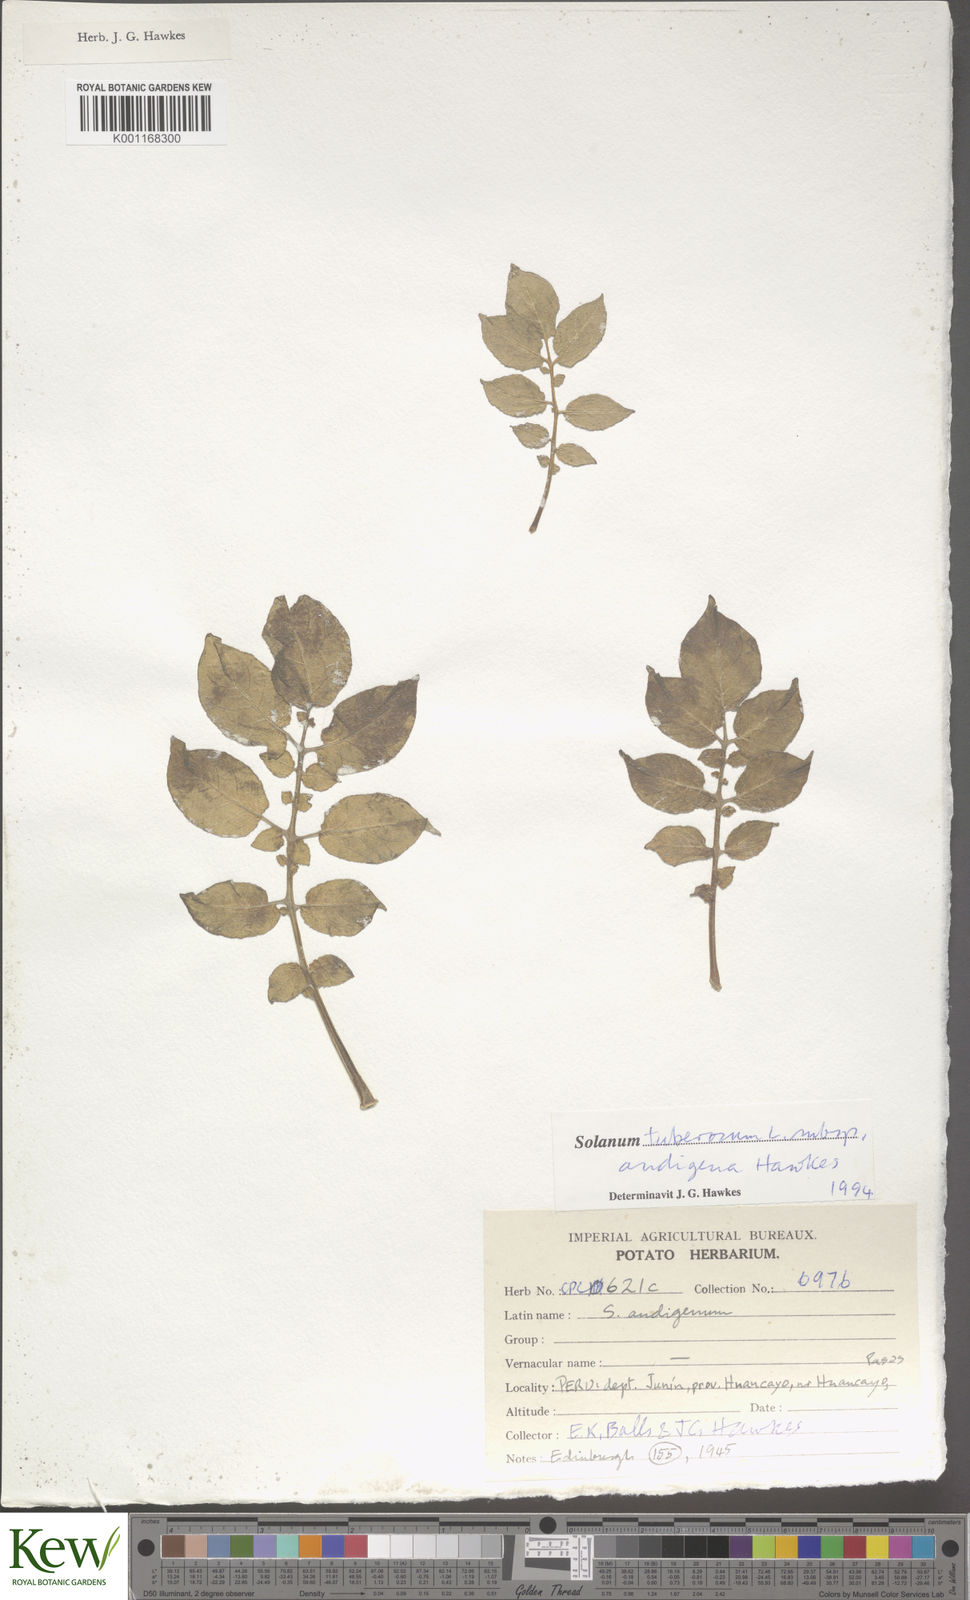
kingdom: Plantae
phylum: Tracheophyta
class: Magnoliopsida
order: Solanales
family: Solanaceae
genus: Solanum
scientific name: Solanum tuberosum
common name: Potato
